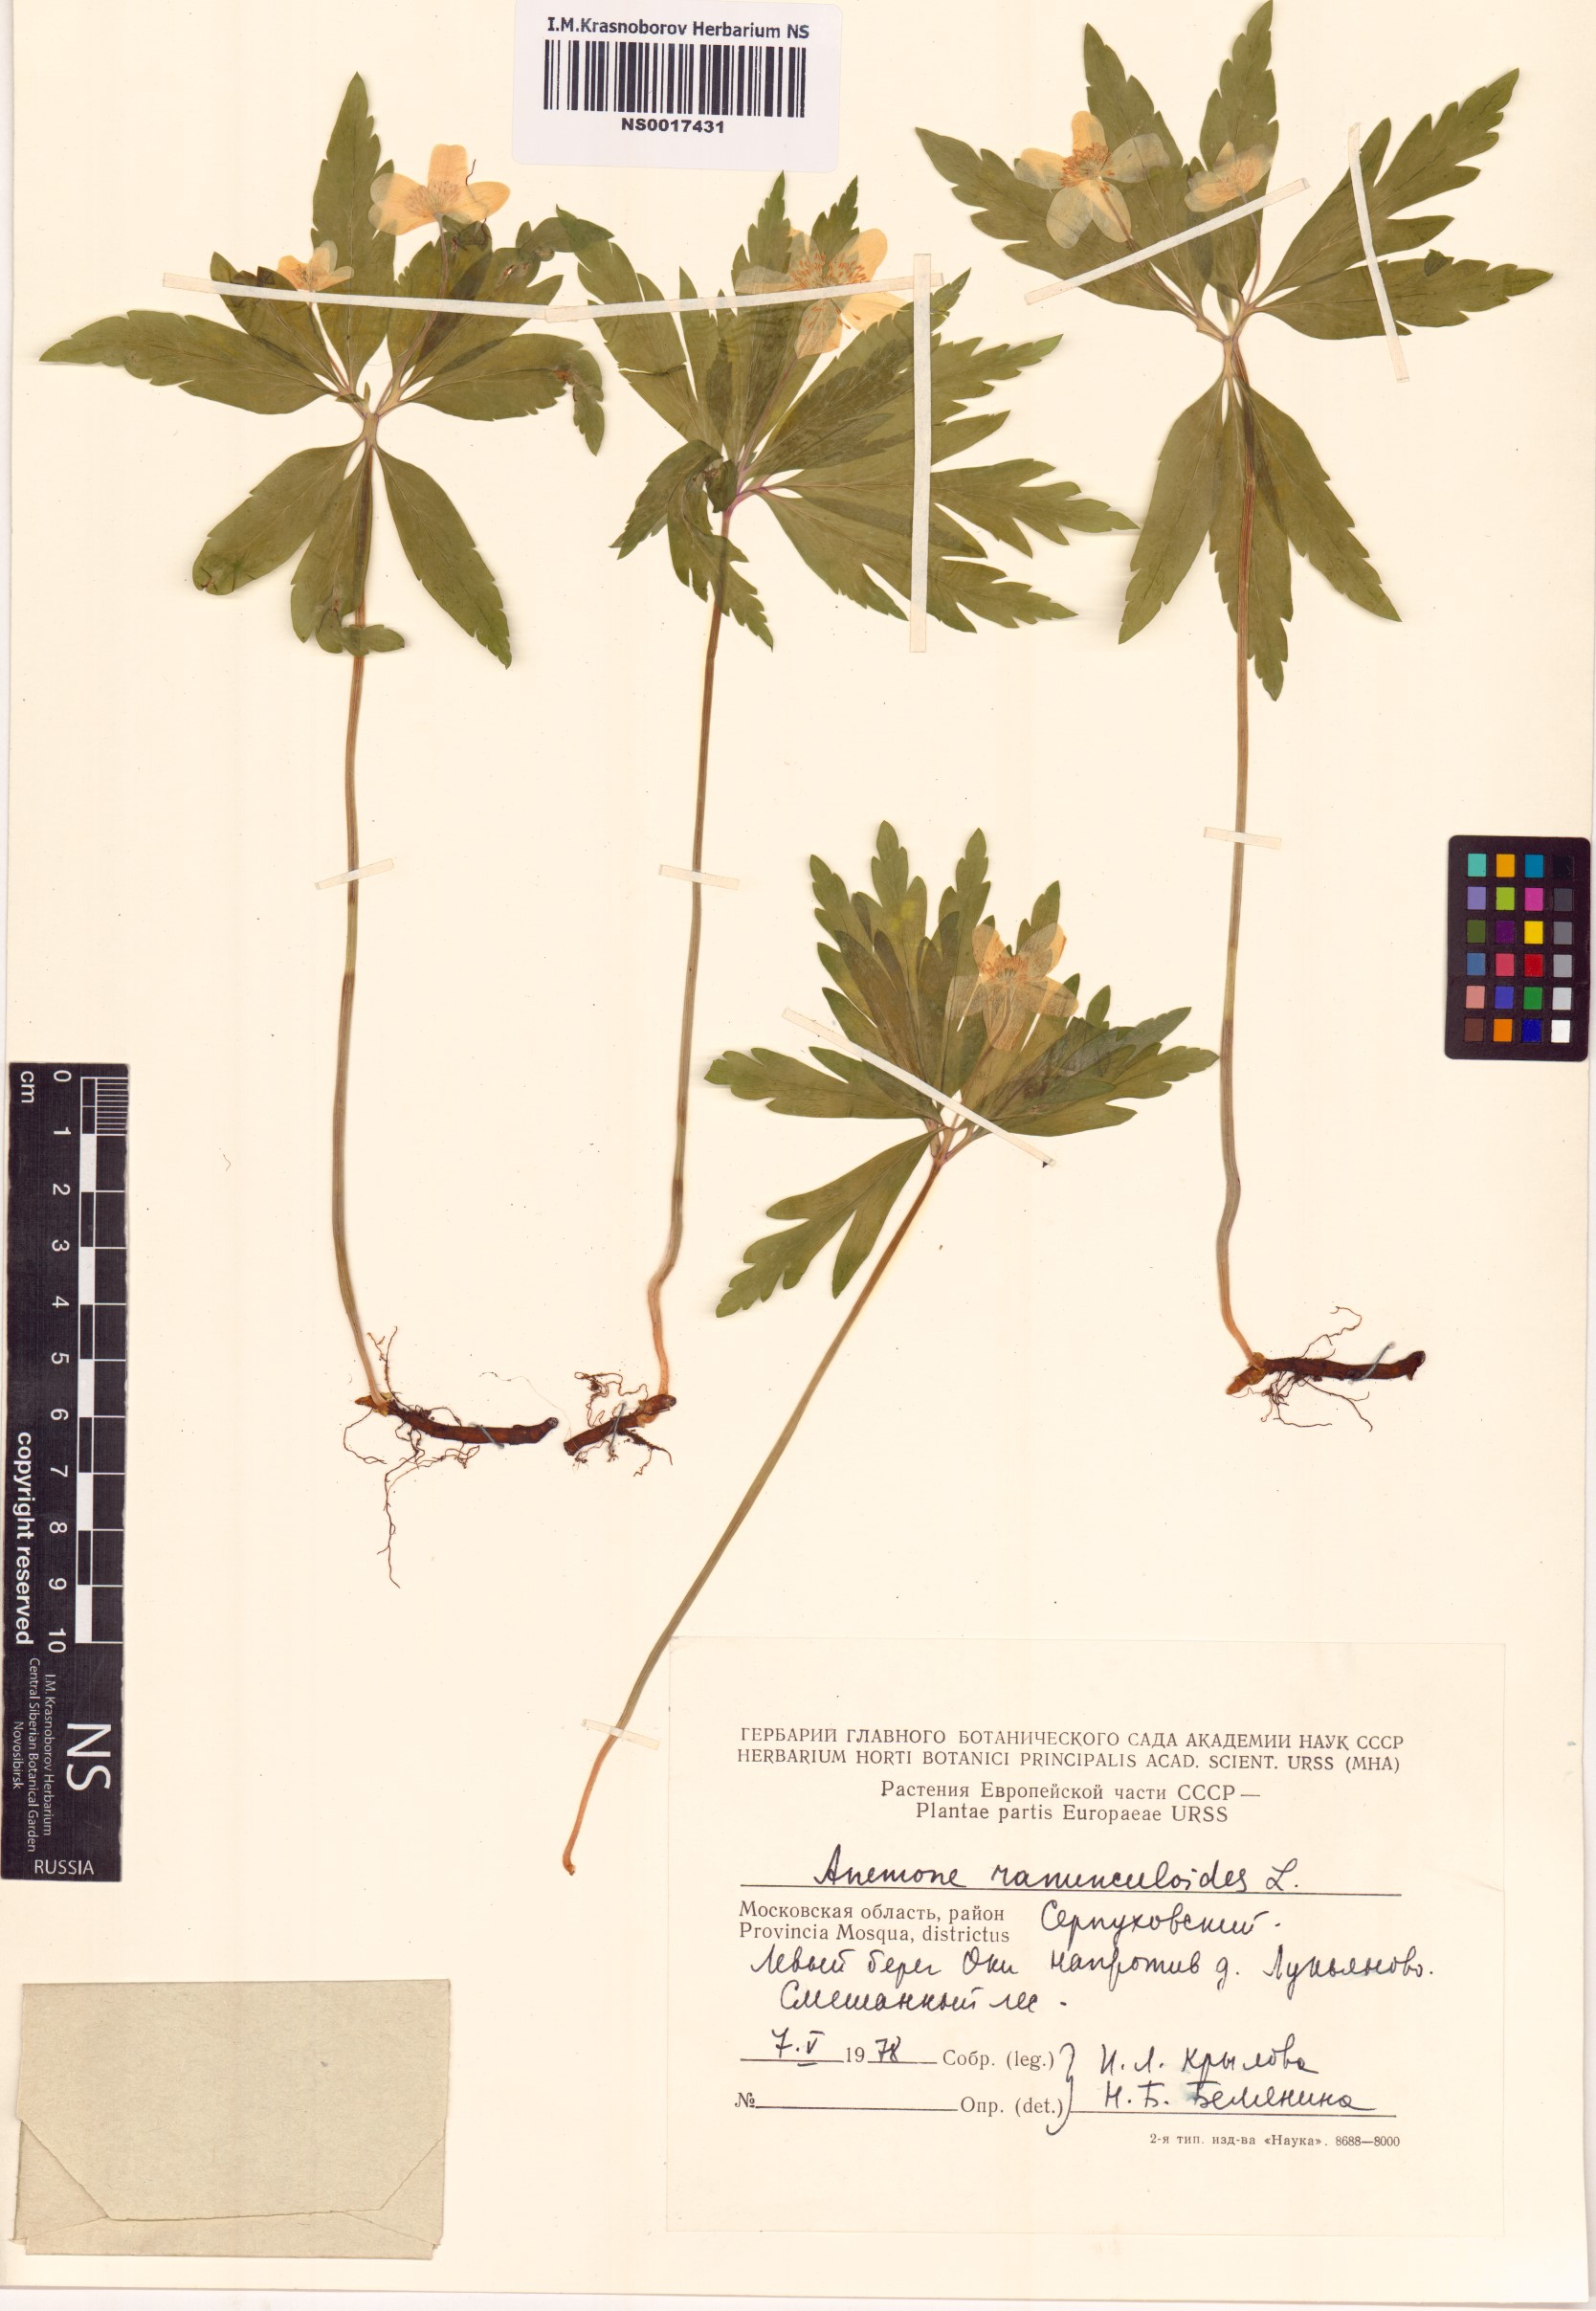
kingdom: Plantae
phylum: Tracheophyta
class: Magnoliopsida
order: Ranunculales
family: Ranunculaceae
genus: Anemone
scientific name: Anemone ranunculoides
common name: Yellow anemone
